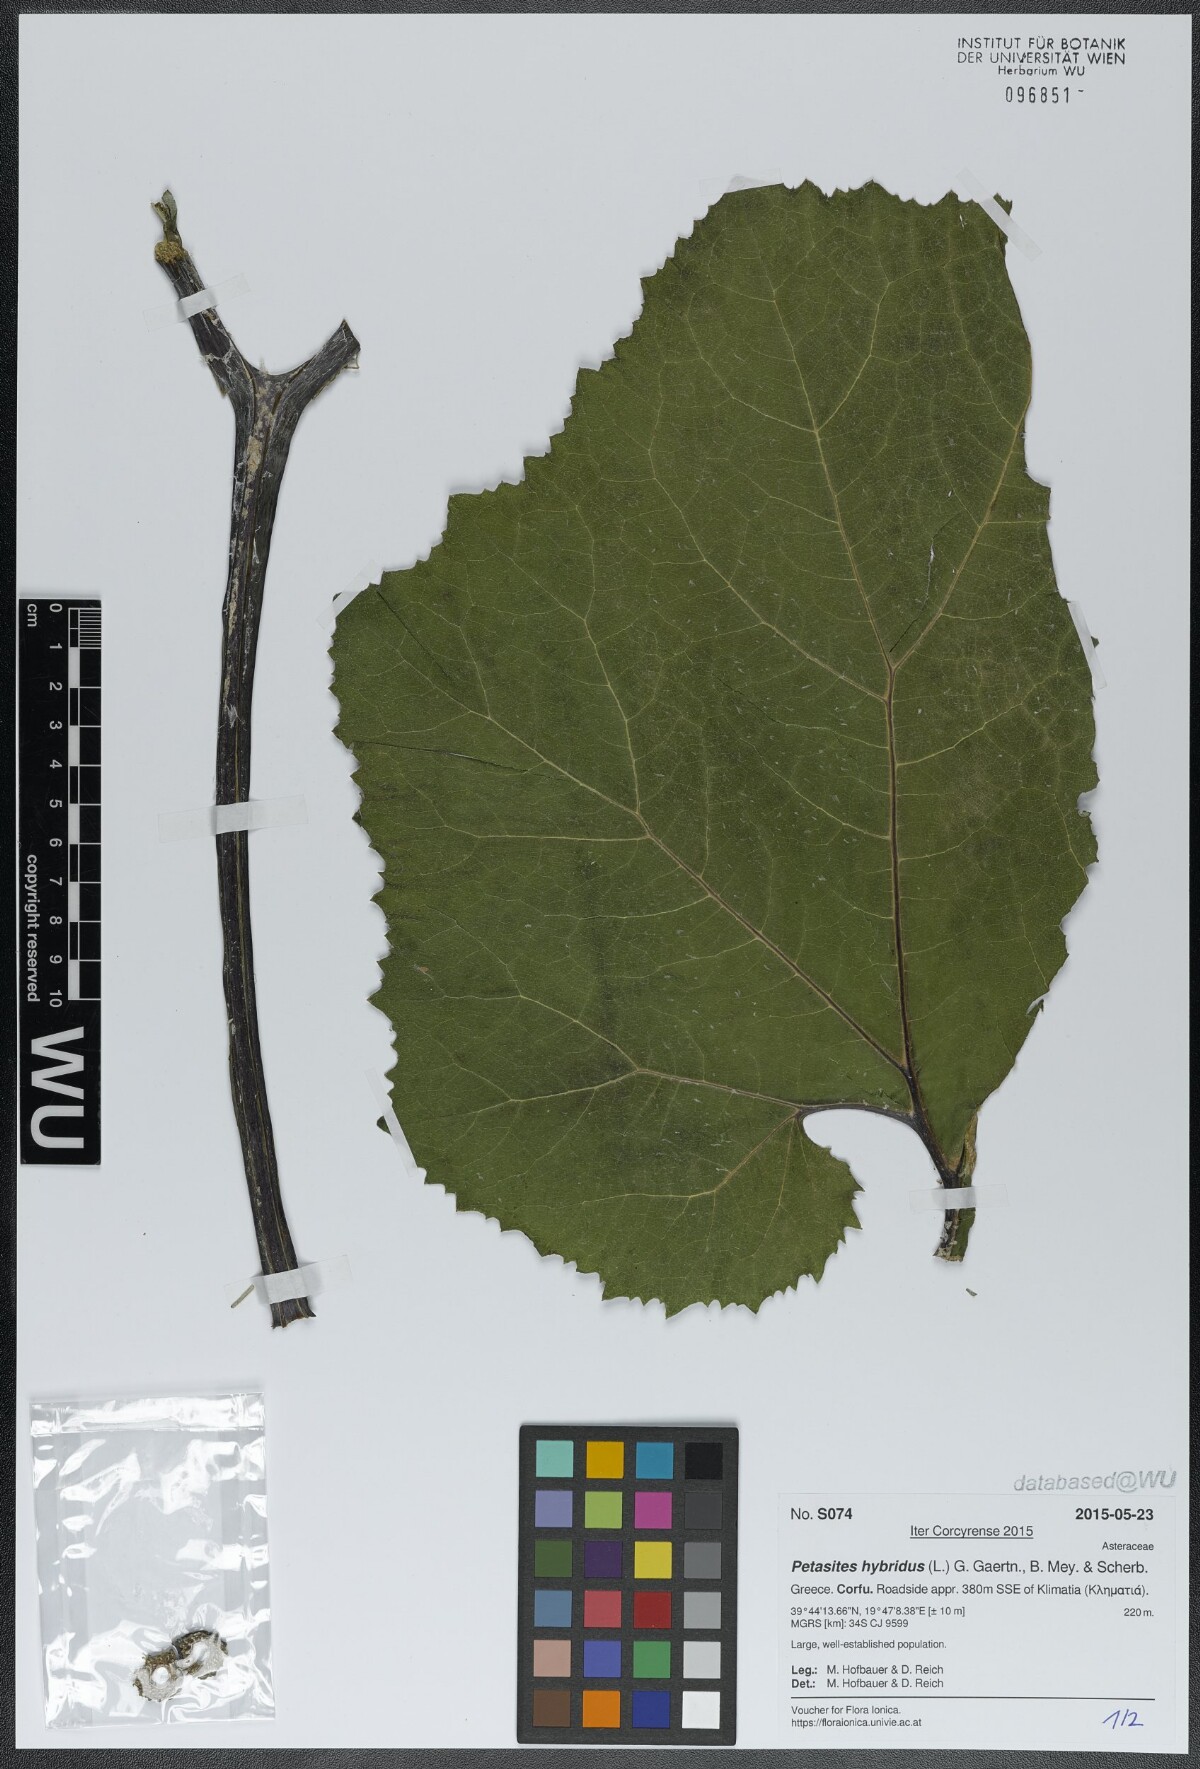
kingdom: Plantae
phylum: Tracheophyta
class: Magnoliopsida
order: Asterales
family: Asteraceae
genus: Petasites
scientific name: Petasites hybridus
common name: Butterbur
